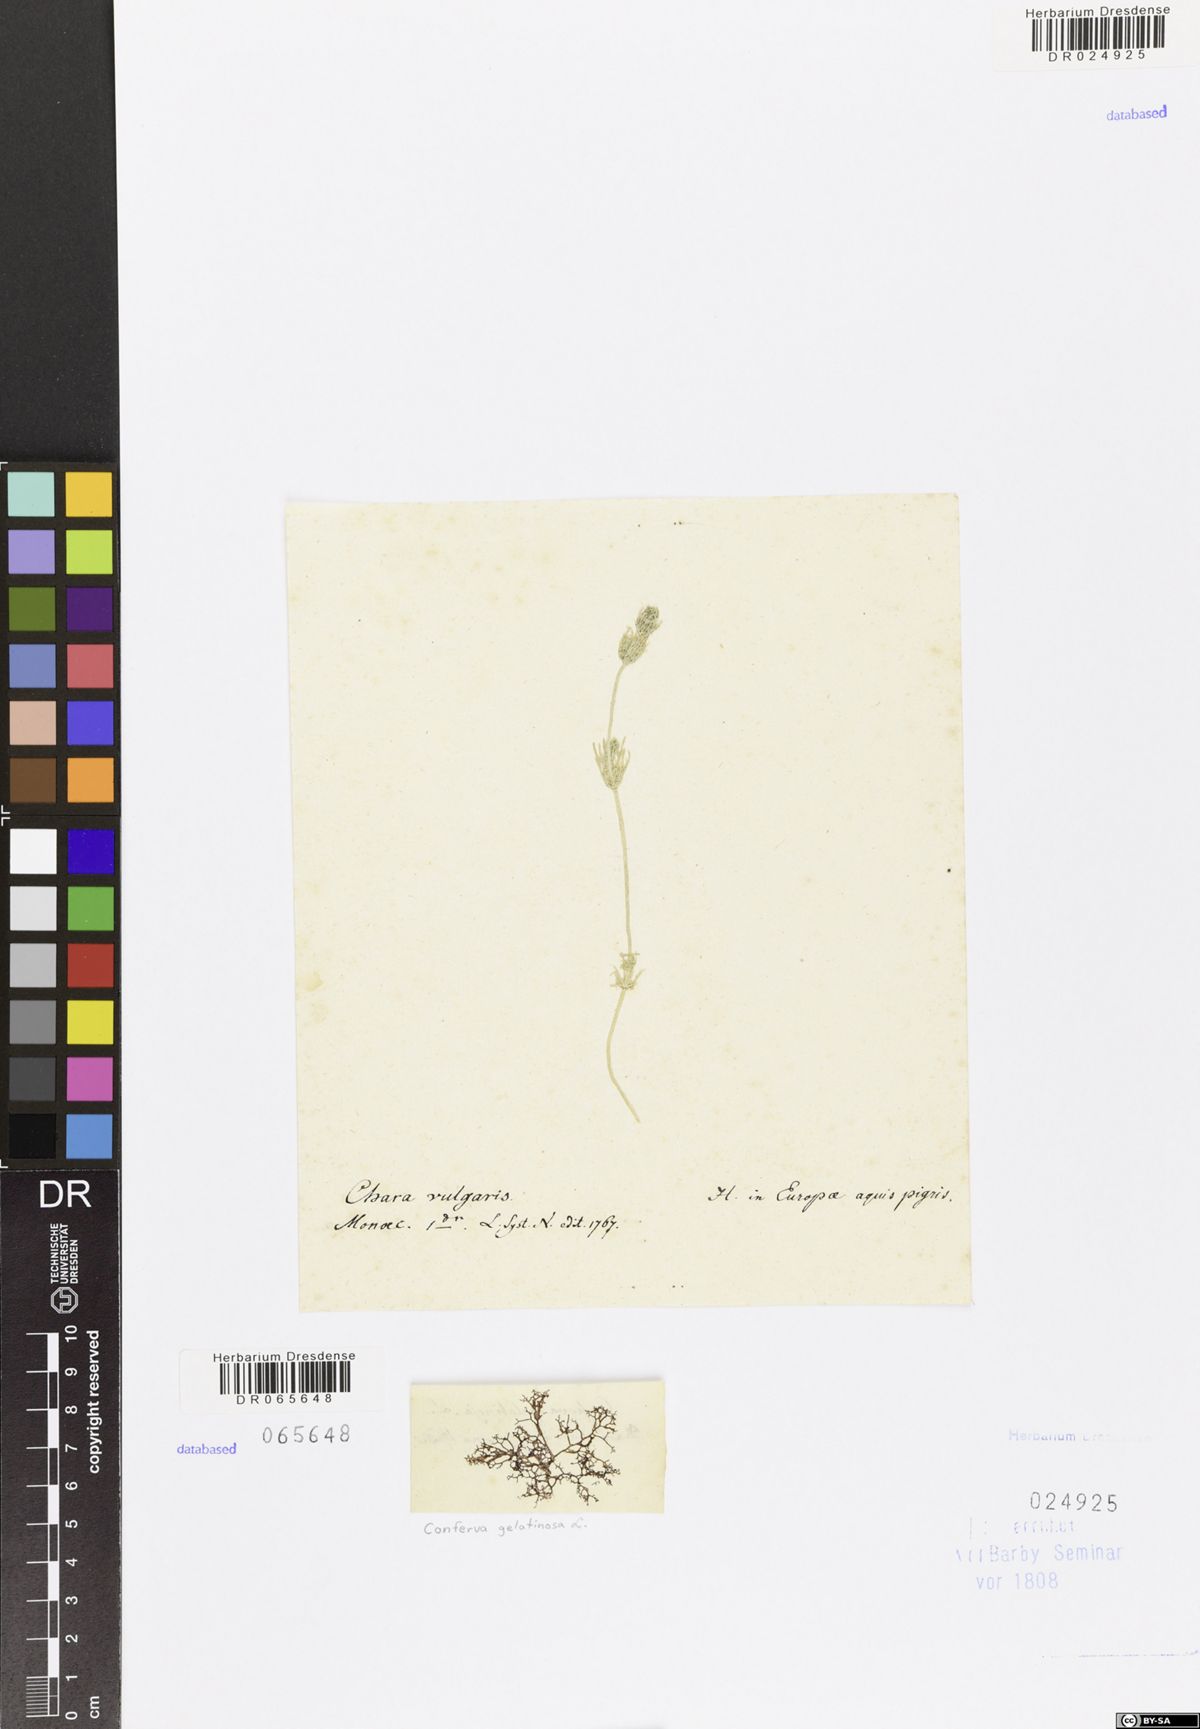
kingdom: Plantae
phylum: Rhodophyta
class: Florideophyceae
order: Batrachospermales
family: Batrachospermaceae
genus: Batrachospermum
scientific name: Batrachospermum gelatinosum
